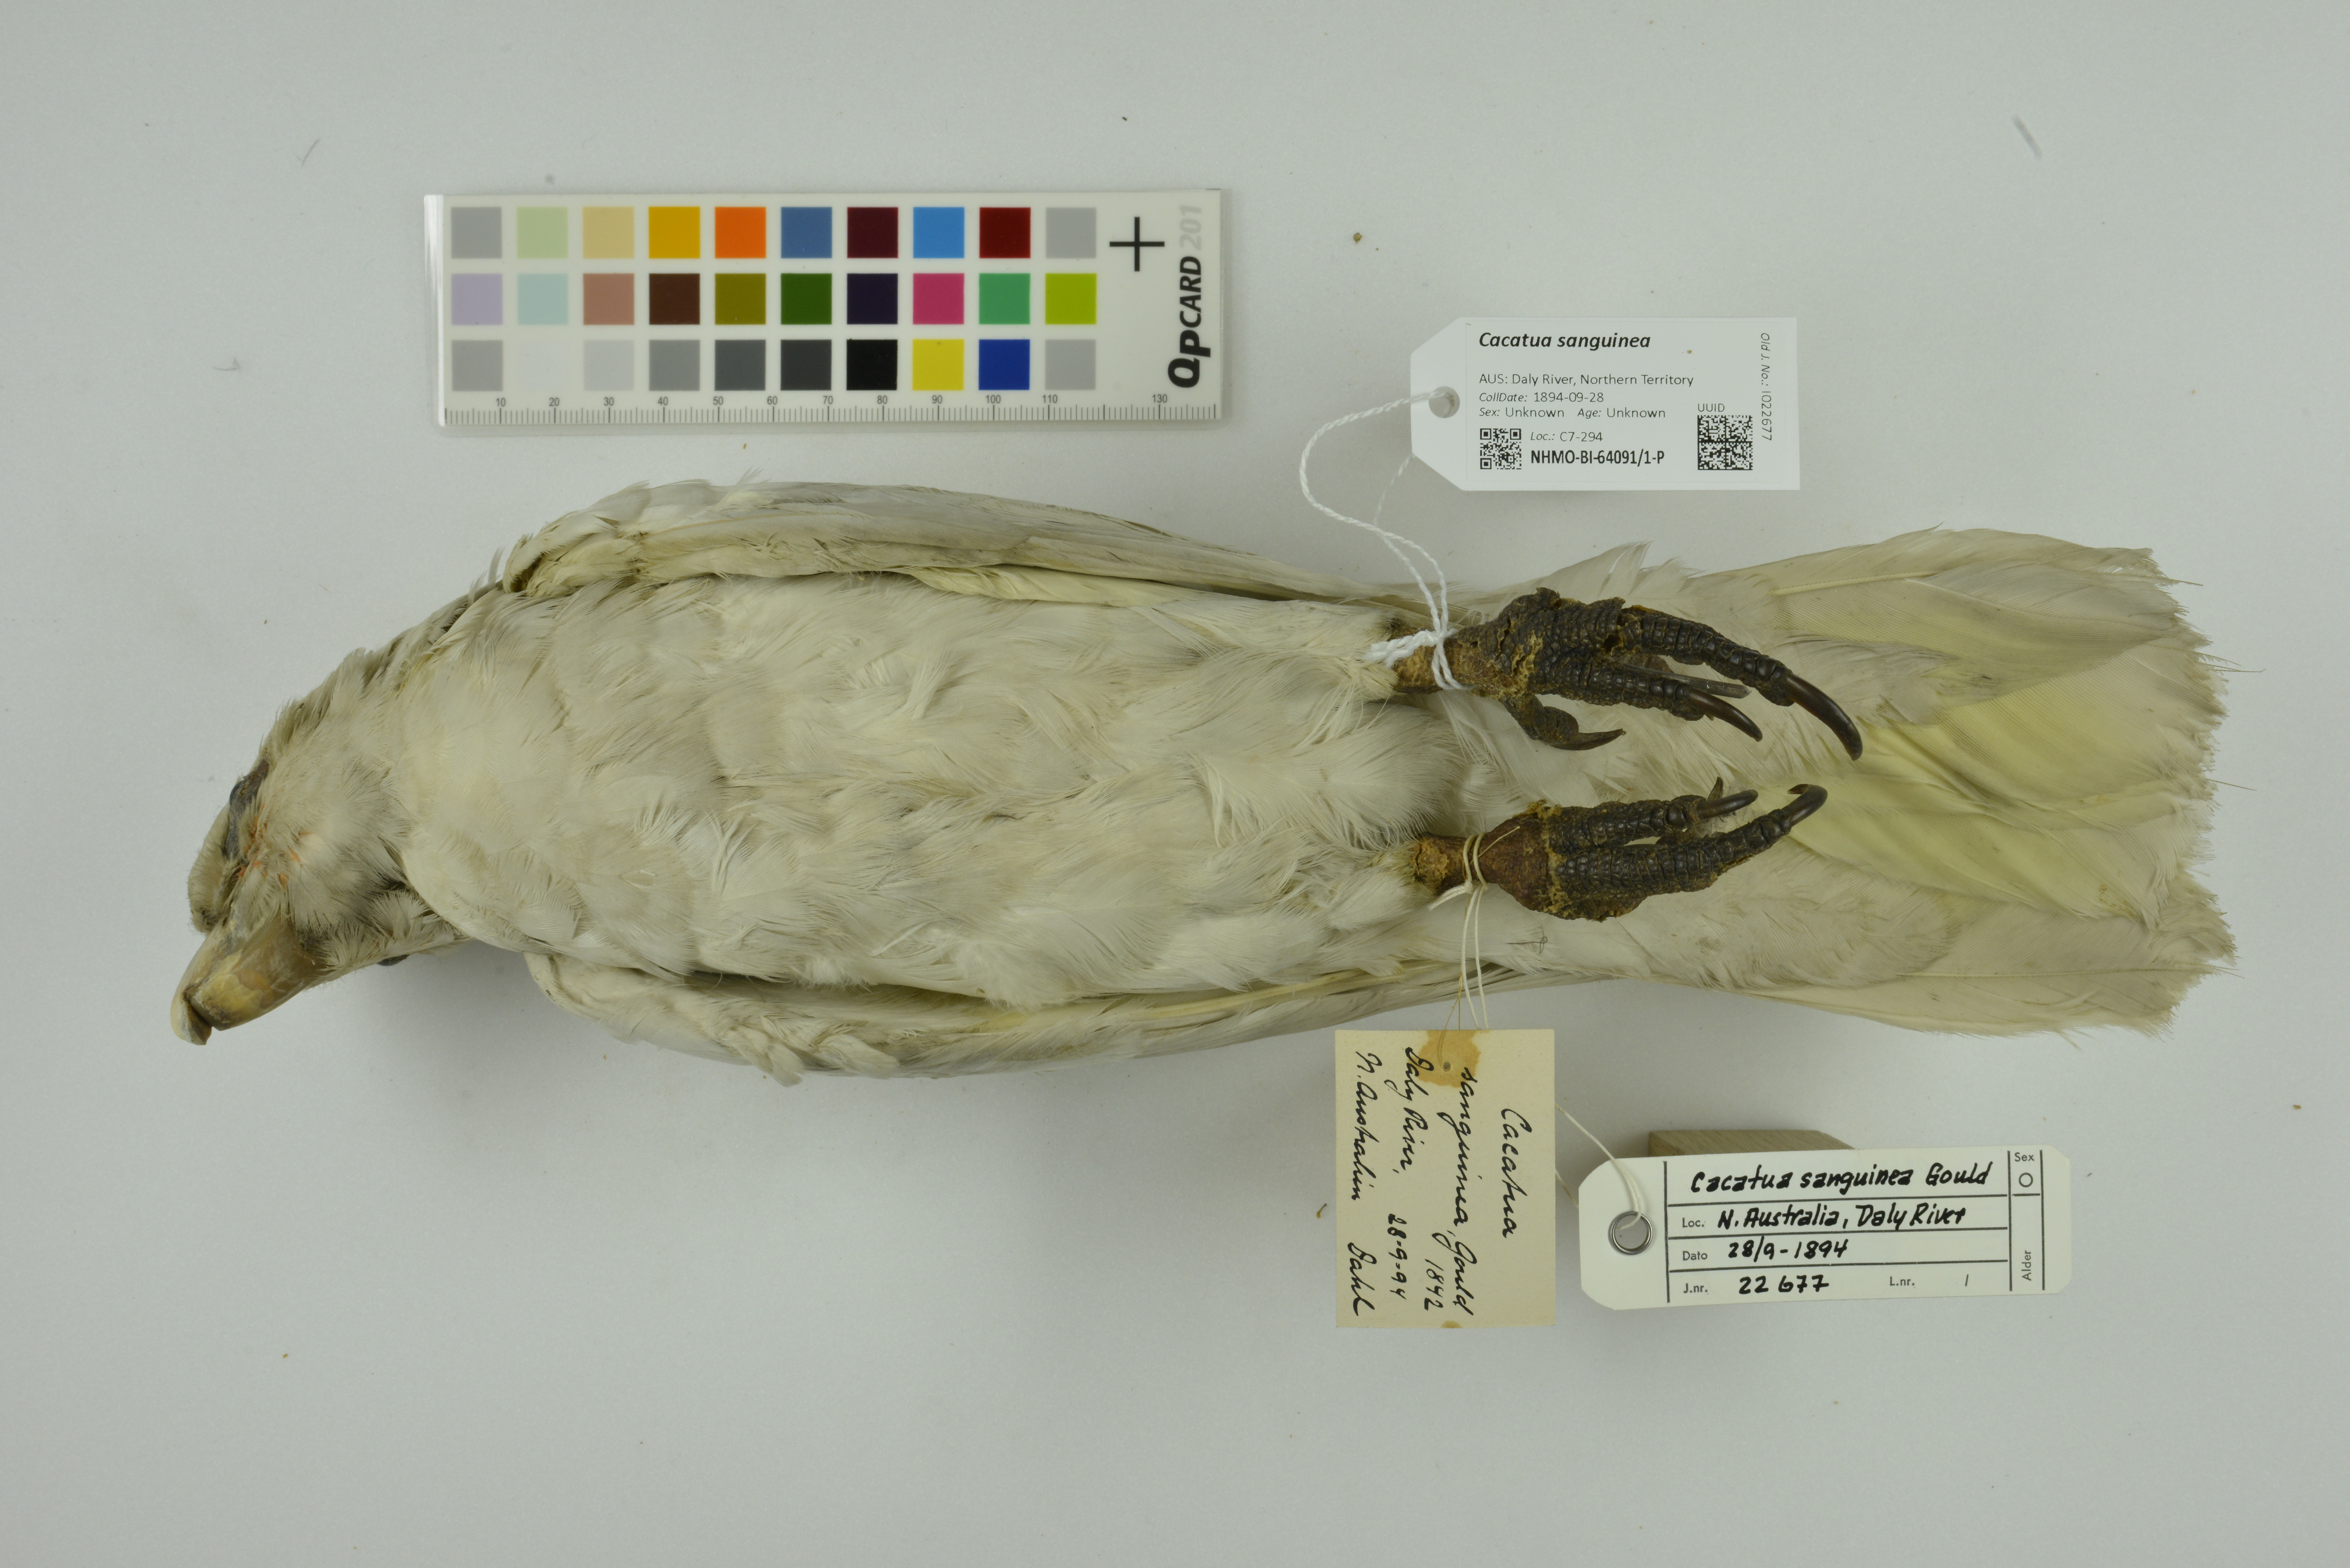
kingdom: Animalia
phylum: Chordata
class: Aves
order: Psittaciformes
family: Psittacidae
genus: Cacatua
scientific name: Cacatua sanguinea
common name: Little corella
